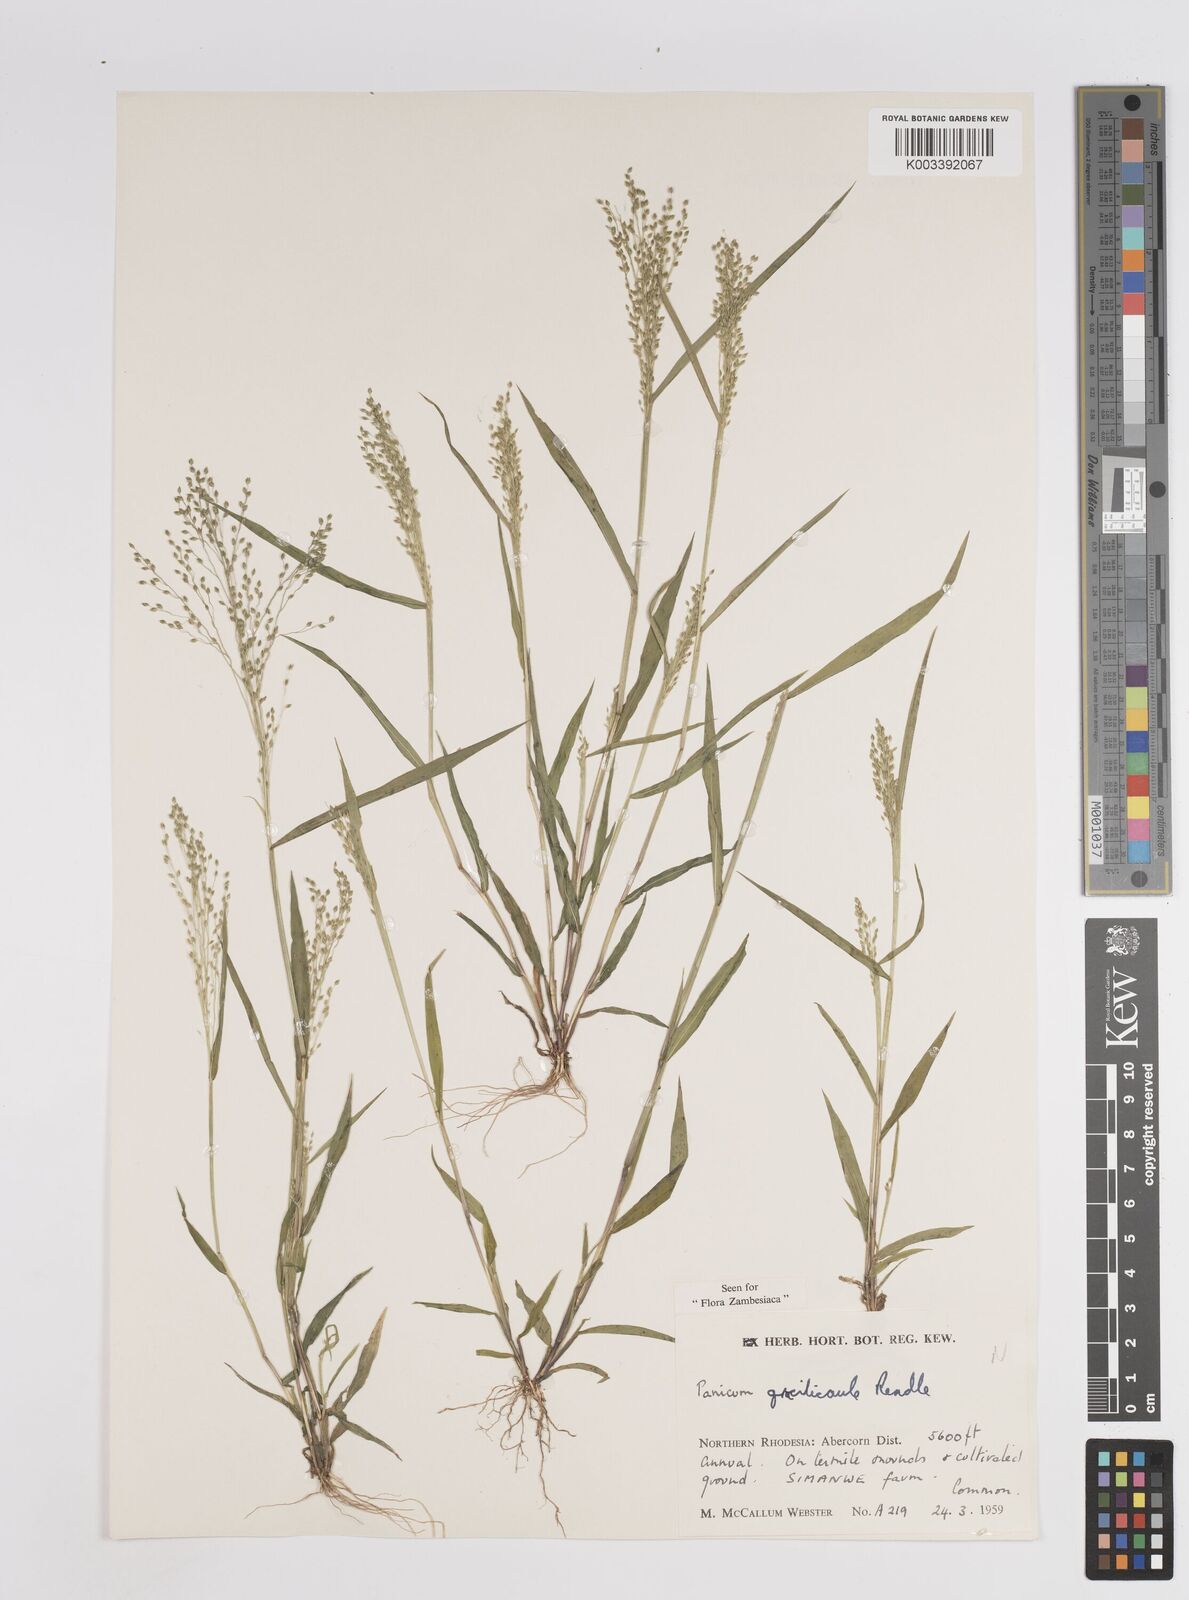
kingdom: Plantae
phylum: Tracheophyta
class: Liliopsida
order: Poales
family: Poaceae
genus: Trichanthecium
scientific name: Trichanthecium gracilicaule
